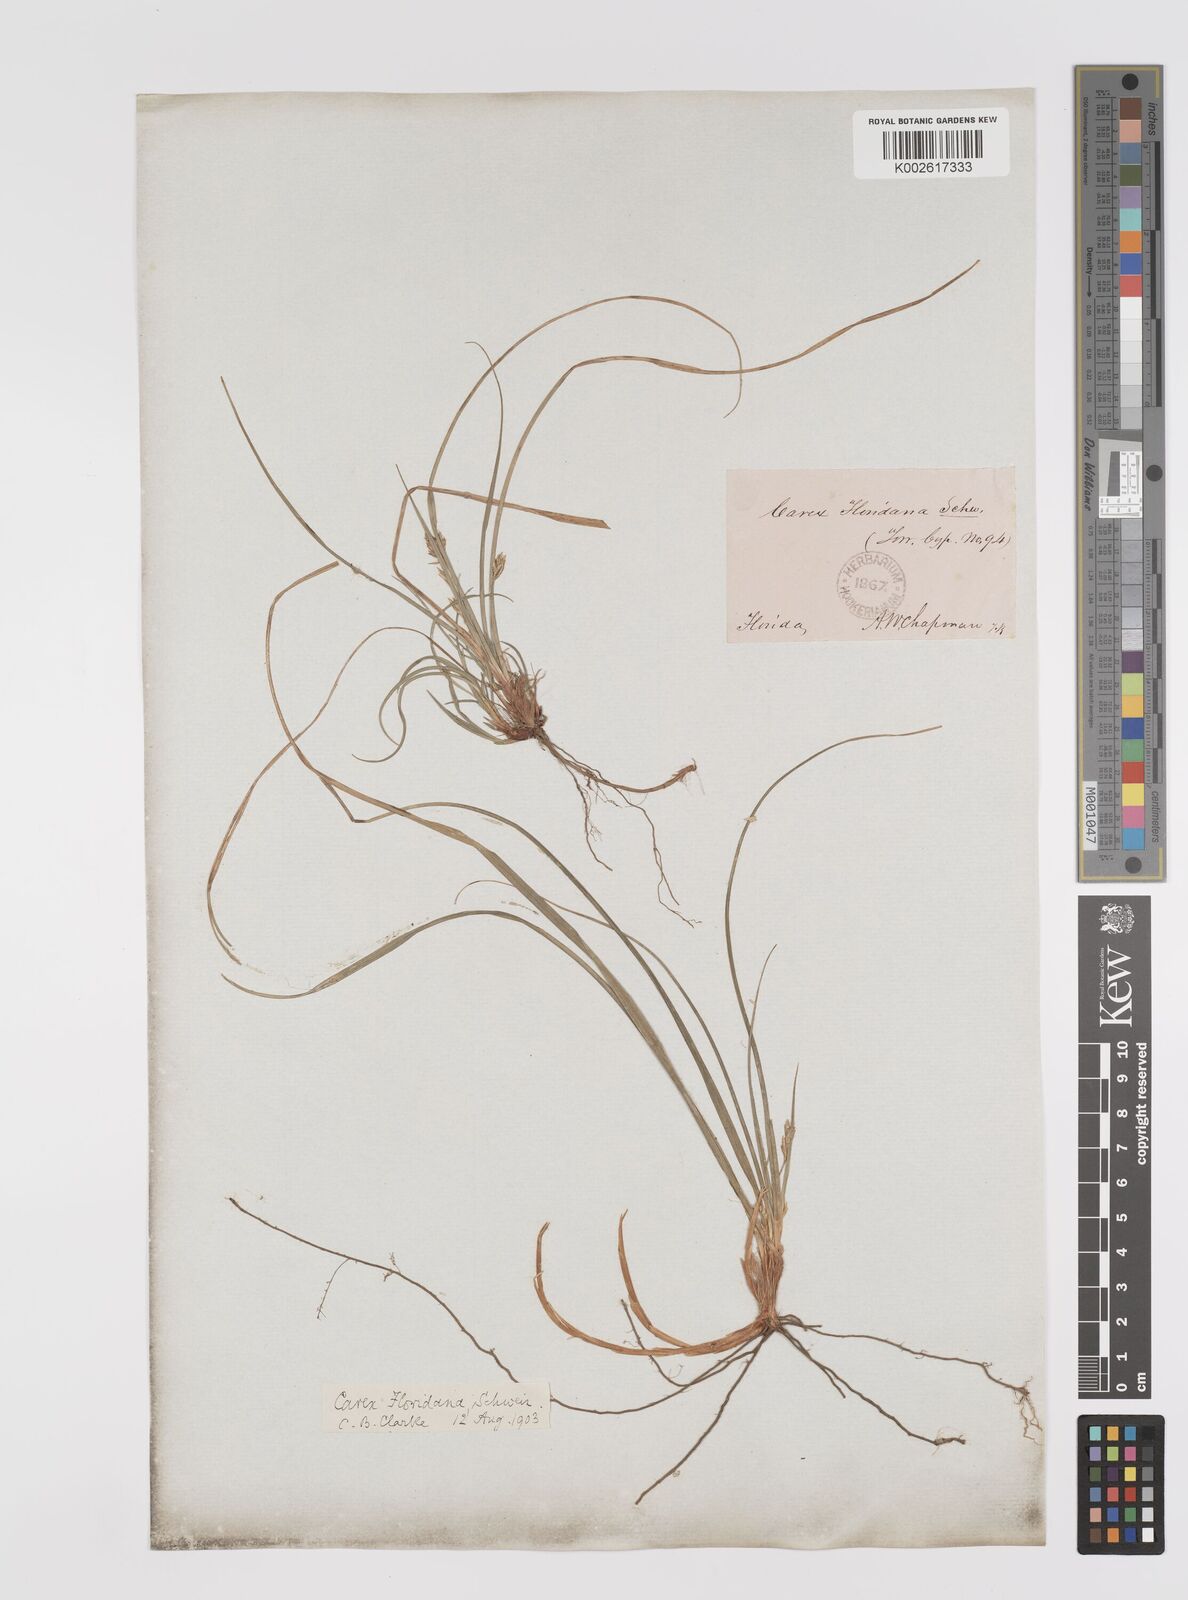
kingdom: Plantae
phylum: Tracheophyta
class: Liliopsida
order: Poales
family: Cyperaceae
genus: Carex
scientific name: Carex floridana
